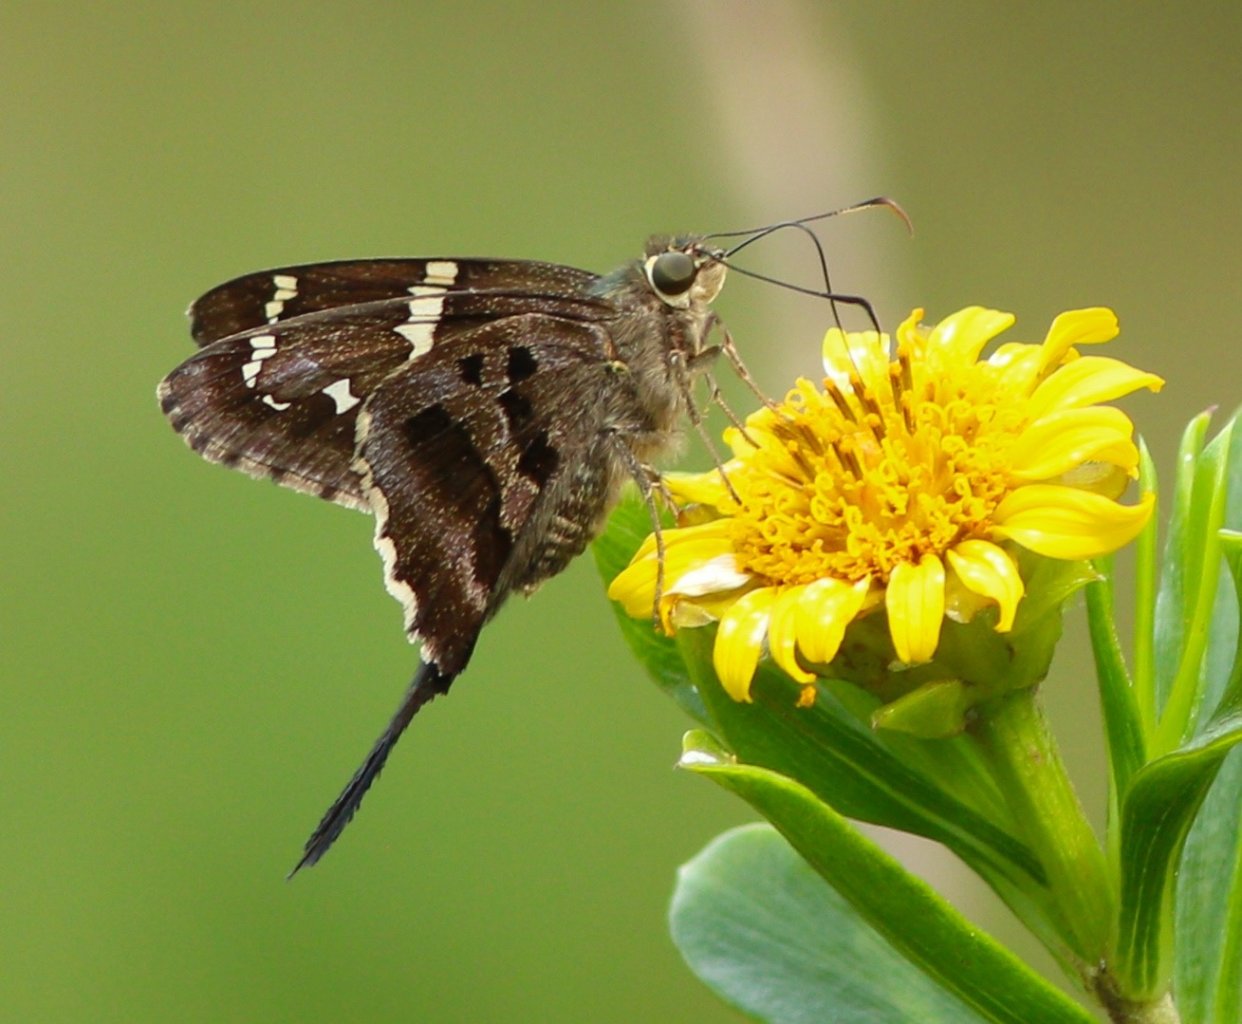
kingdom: Animalia
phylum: Arthropoda
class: Insecta
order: Lepidoptera
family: Hesperiidae
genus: Urbanus
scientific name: Urbanus proteus
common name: Long-tailed Skipper
